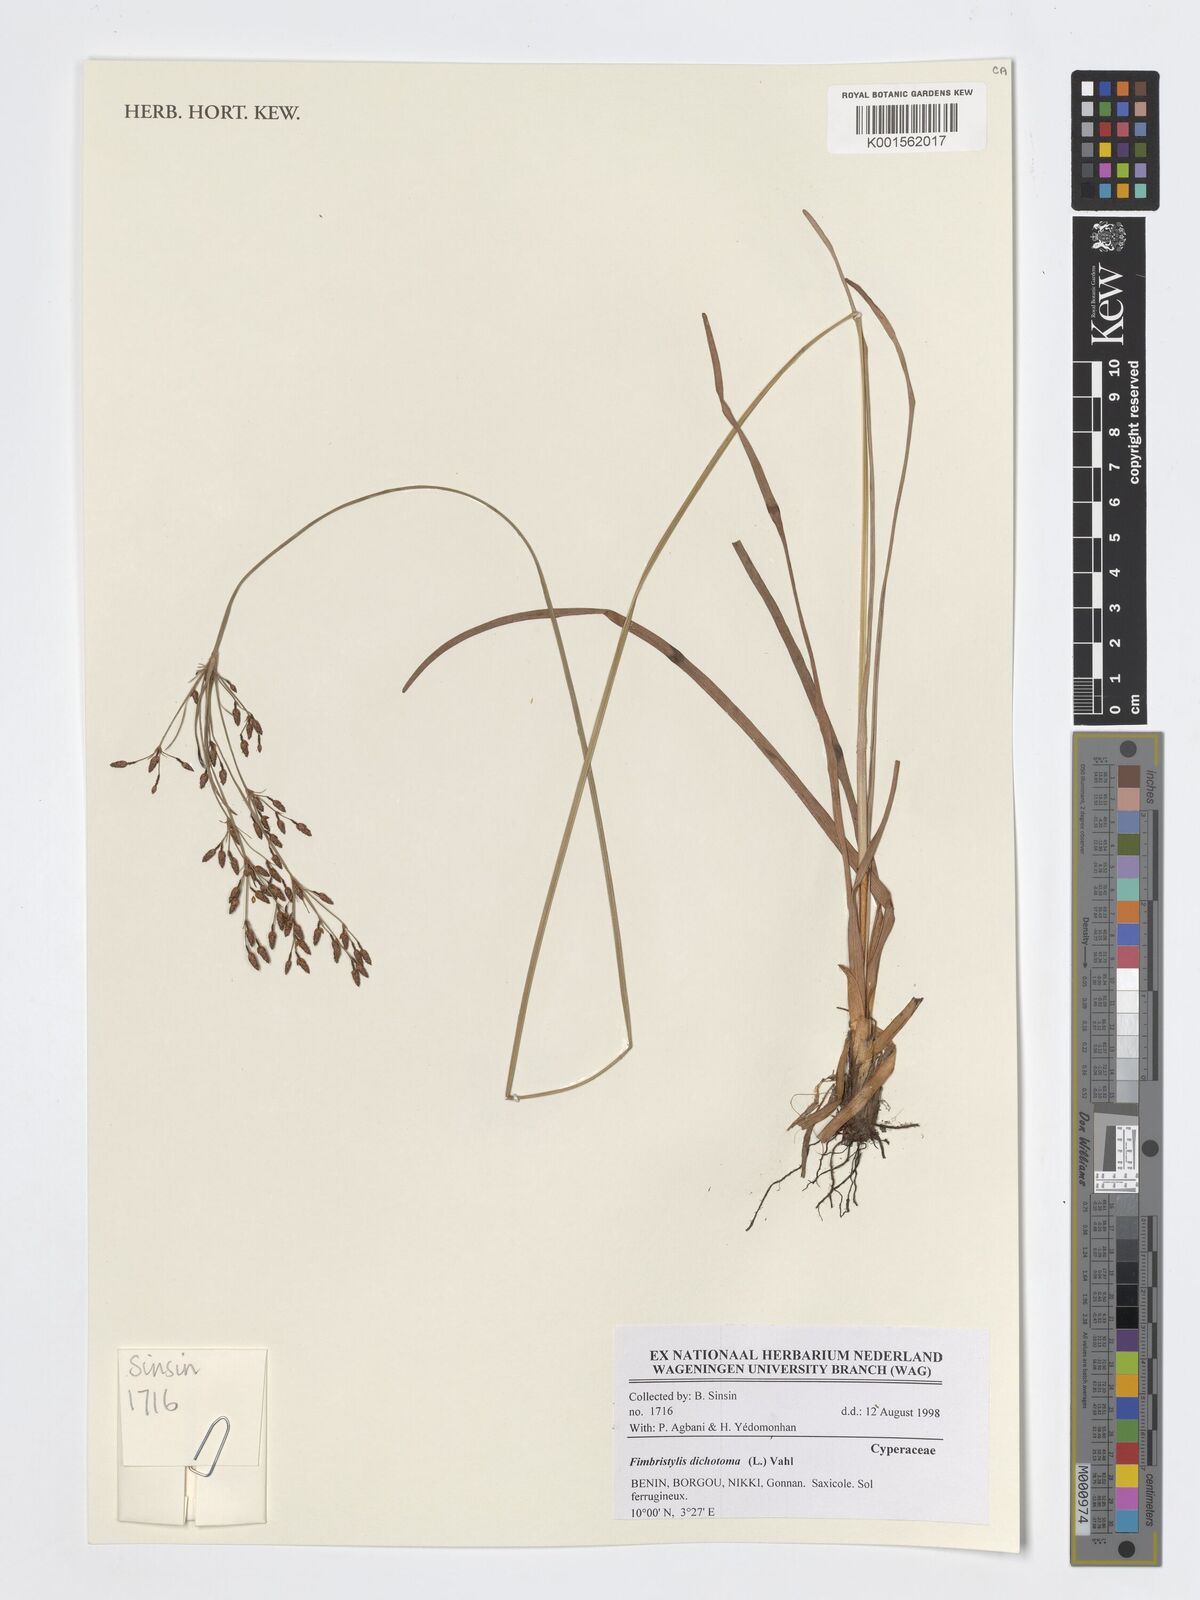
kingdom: Plantae
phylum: Tracheophyta
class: Liliopsida
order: Poales
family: Cyperaceae
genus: Fimbristylis
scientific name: Fimbristylis dichotoma
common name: Forked fimbry
